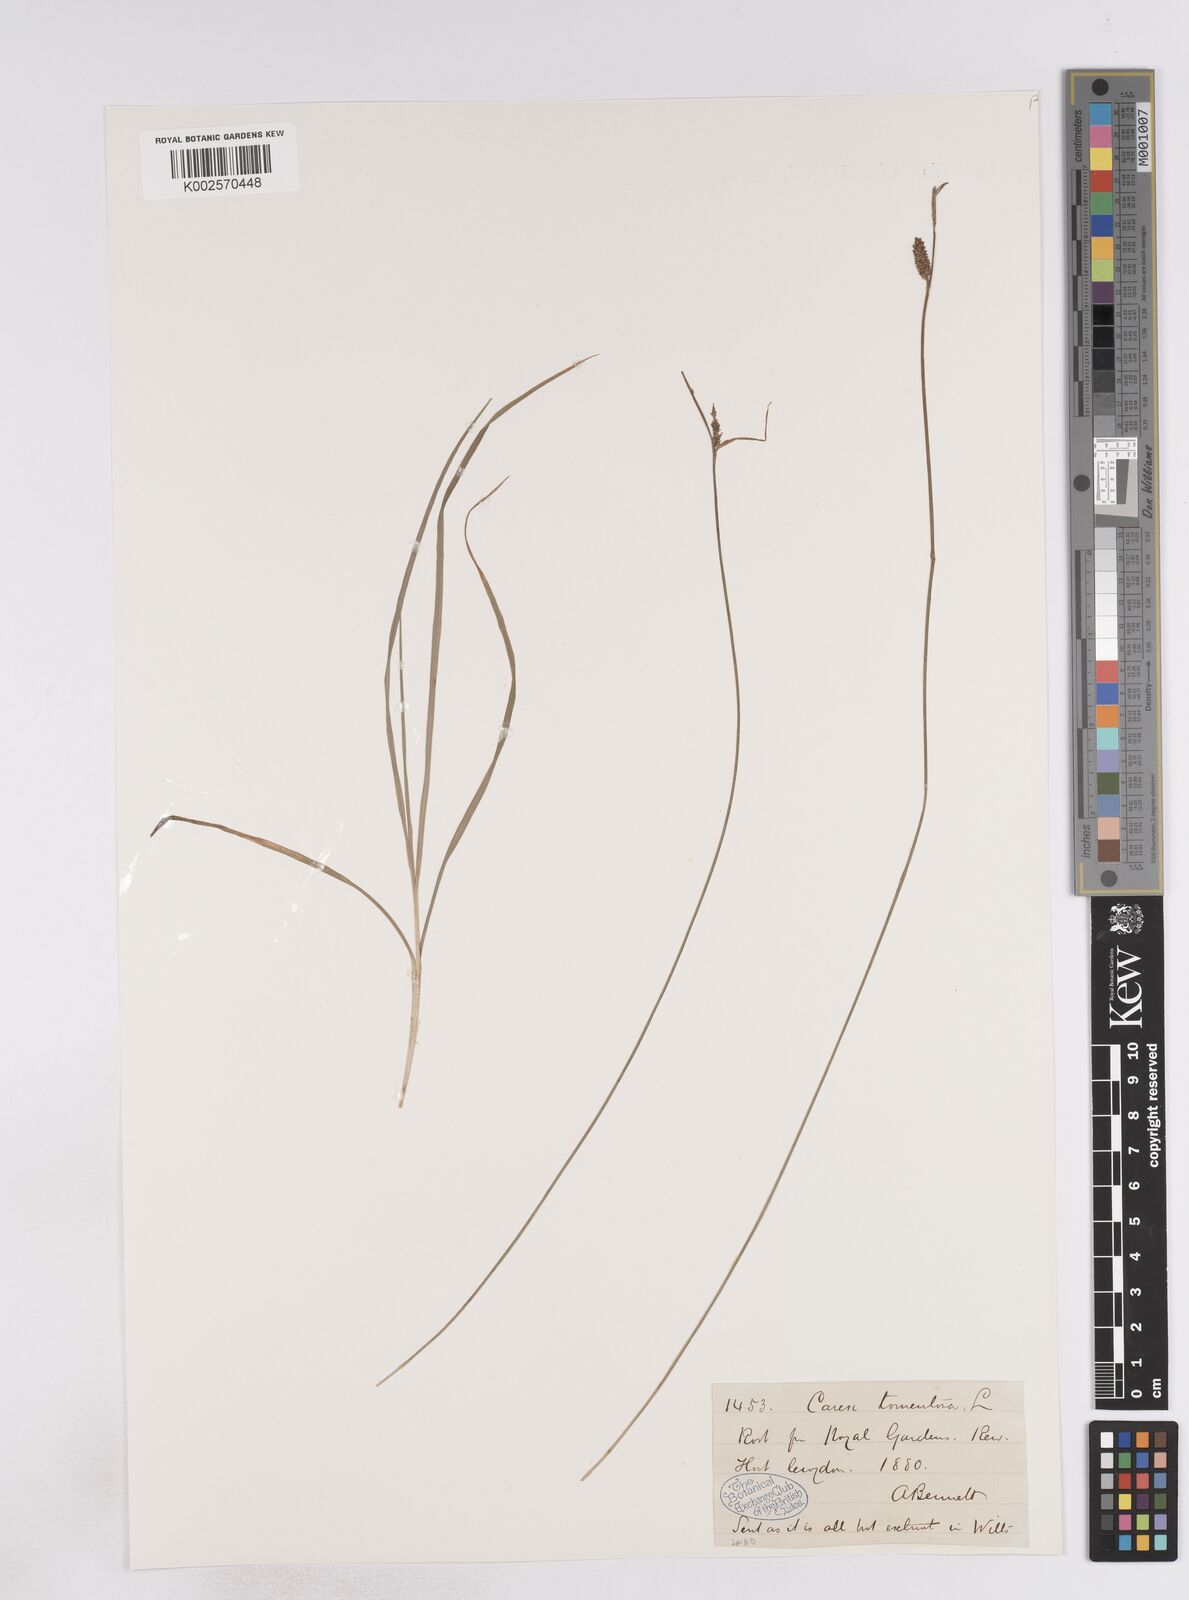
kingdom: Plantae
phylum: Tracheophyta
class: Liliopsida
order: Poales
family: Cyperaceae
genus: Carex
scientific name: Carex montana
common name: Soft-leaved sedge
